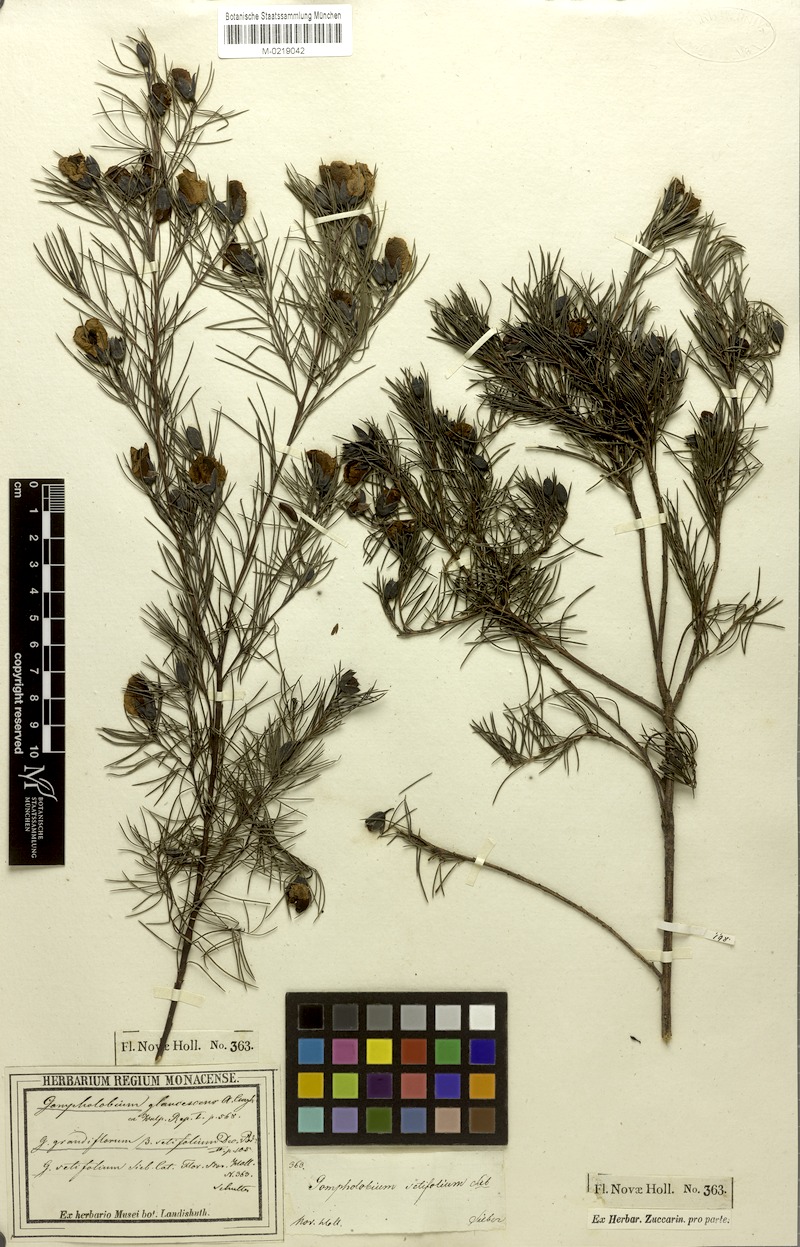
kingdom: Plantae
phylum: Tracheophyta
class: Magnoliopsida
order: Fabales
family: Fabaceae
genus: Gompholobium
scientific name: Gompholobium grandiflorum
